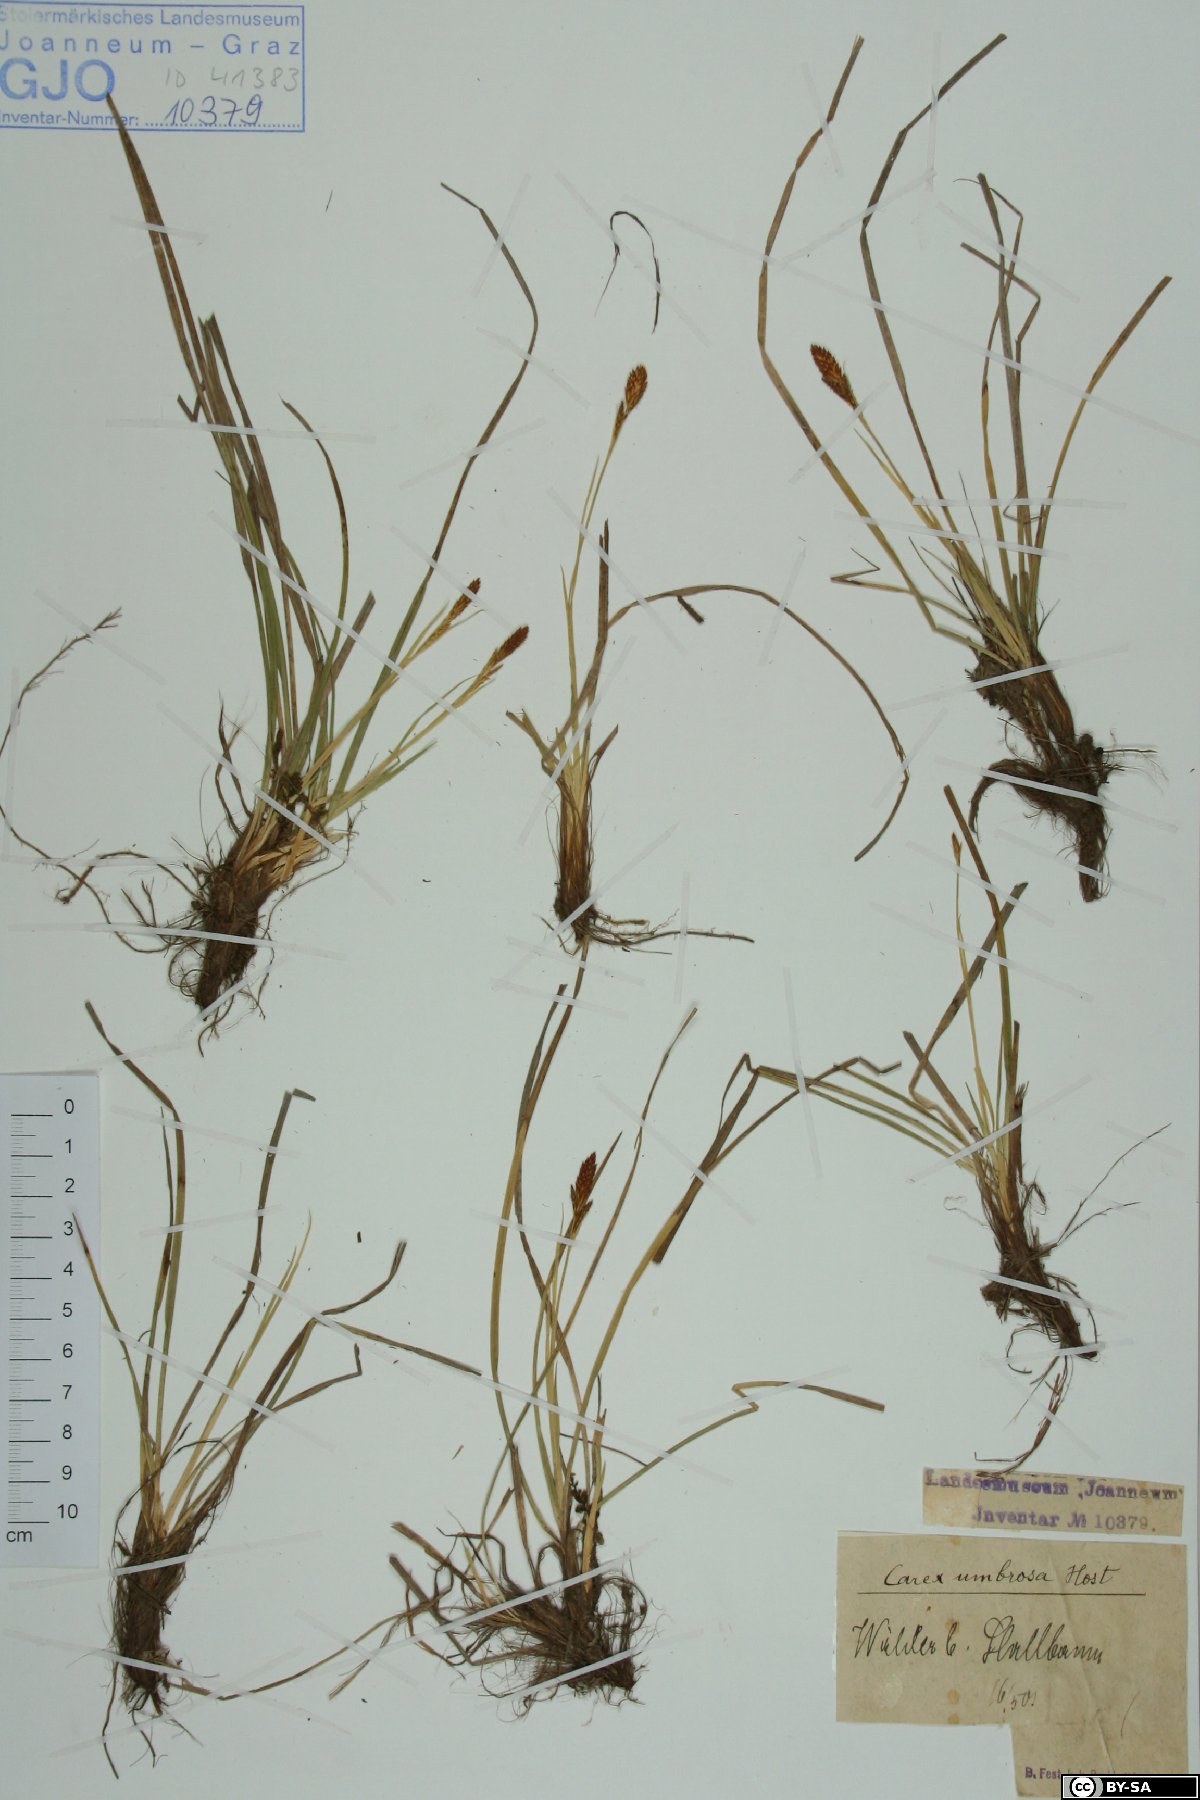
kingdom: Plantae
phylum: Tracheophyta
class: Liliopsida
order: Poales
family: Cyperaceae
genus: Carex
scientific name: Carex umbrosa
